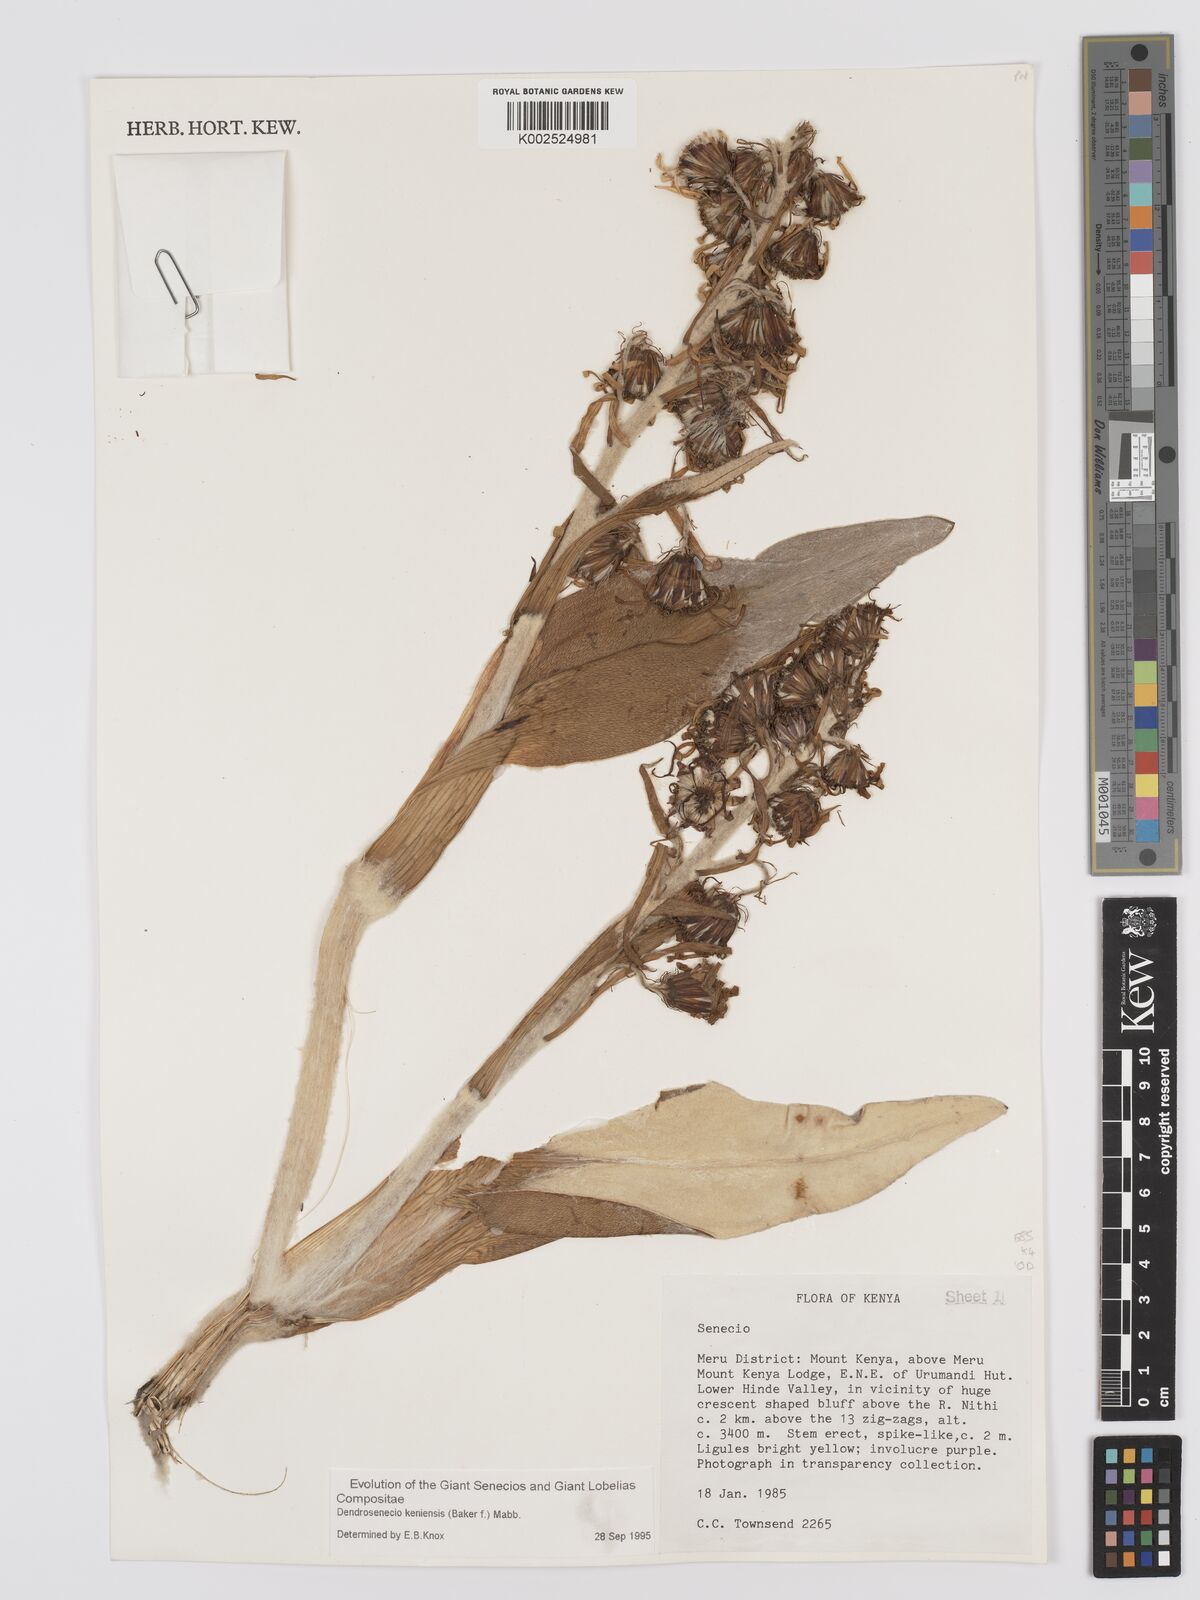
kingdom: Plantae
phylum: Tracheophyta
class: Magnoliopsida
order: Asterales
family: Asteraceae
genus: Dendrosenecio
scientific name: Dendrosenecio keniensis
